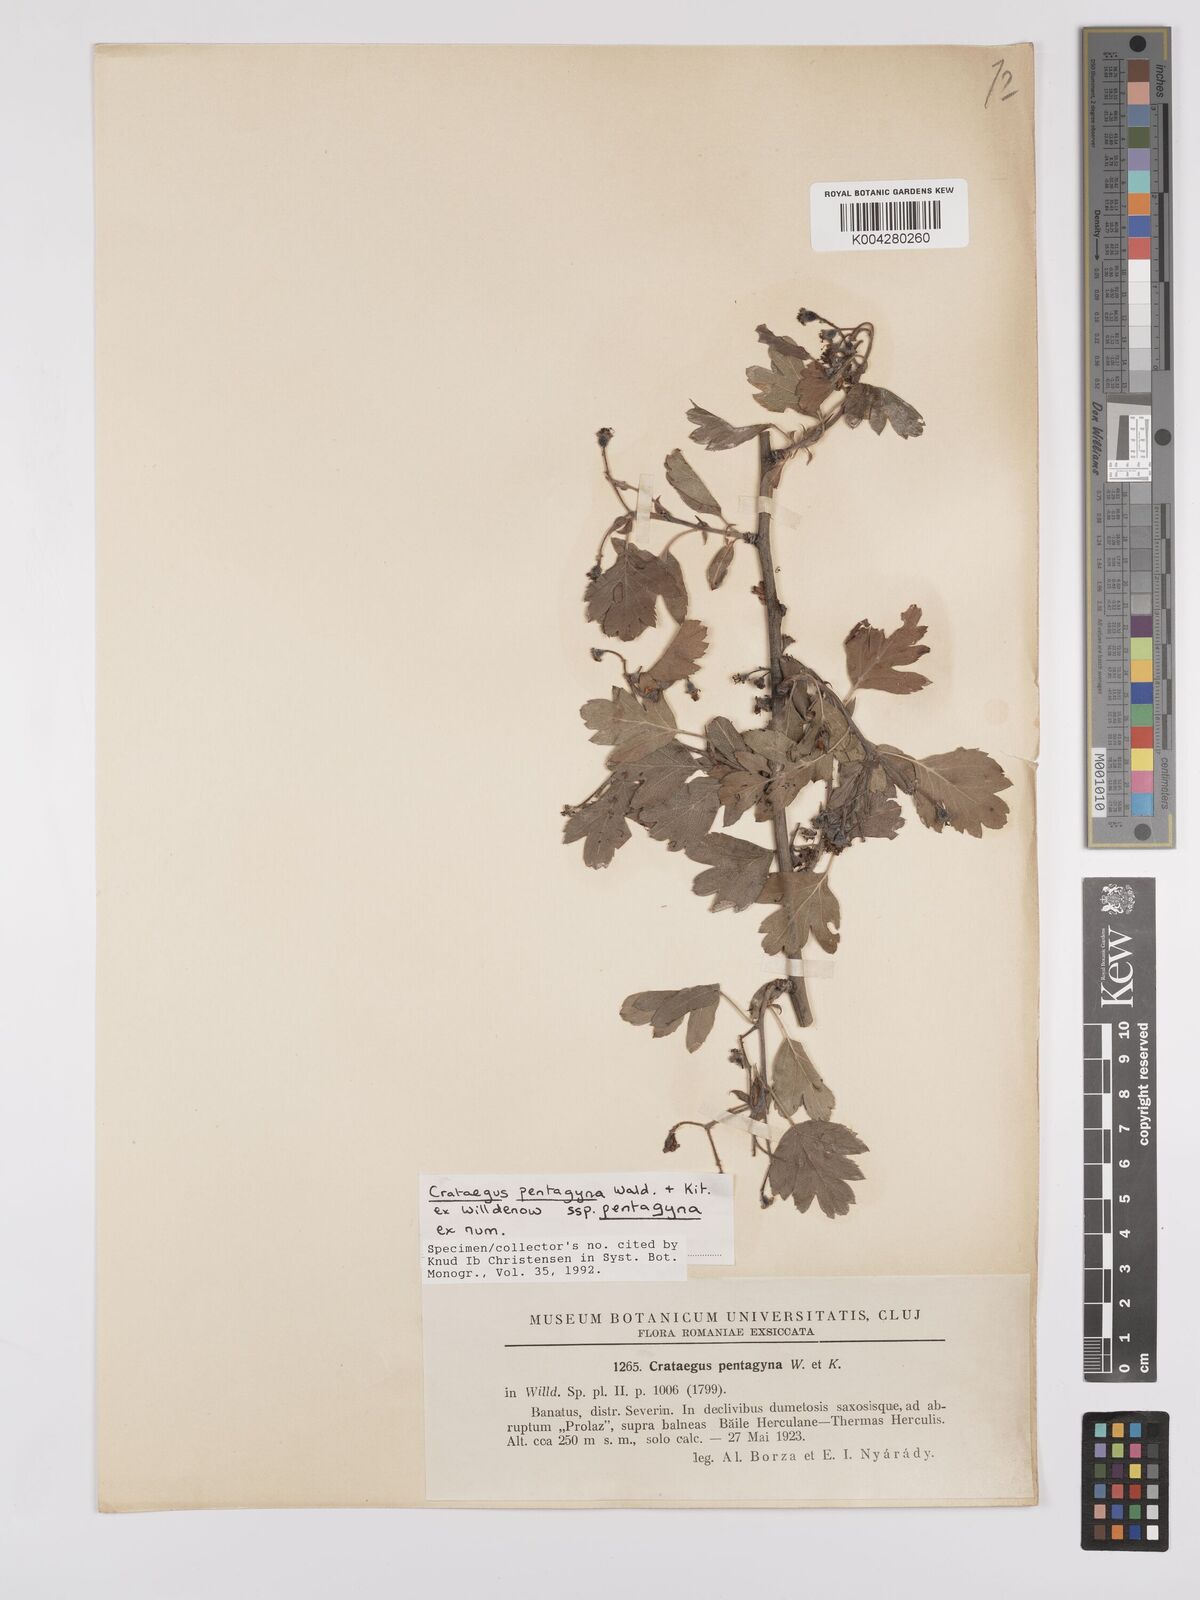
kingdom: Plantae
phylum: Tracheophyta
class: Magnoliopsida
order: Rosales
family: Rosaceae
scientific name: Rosaceae
